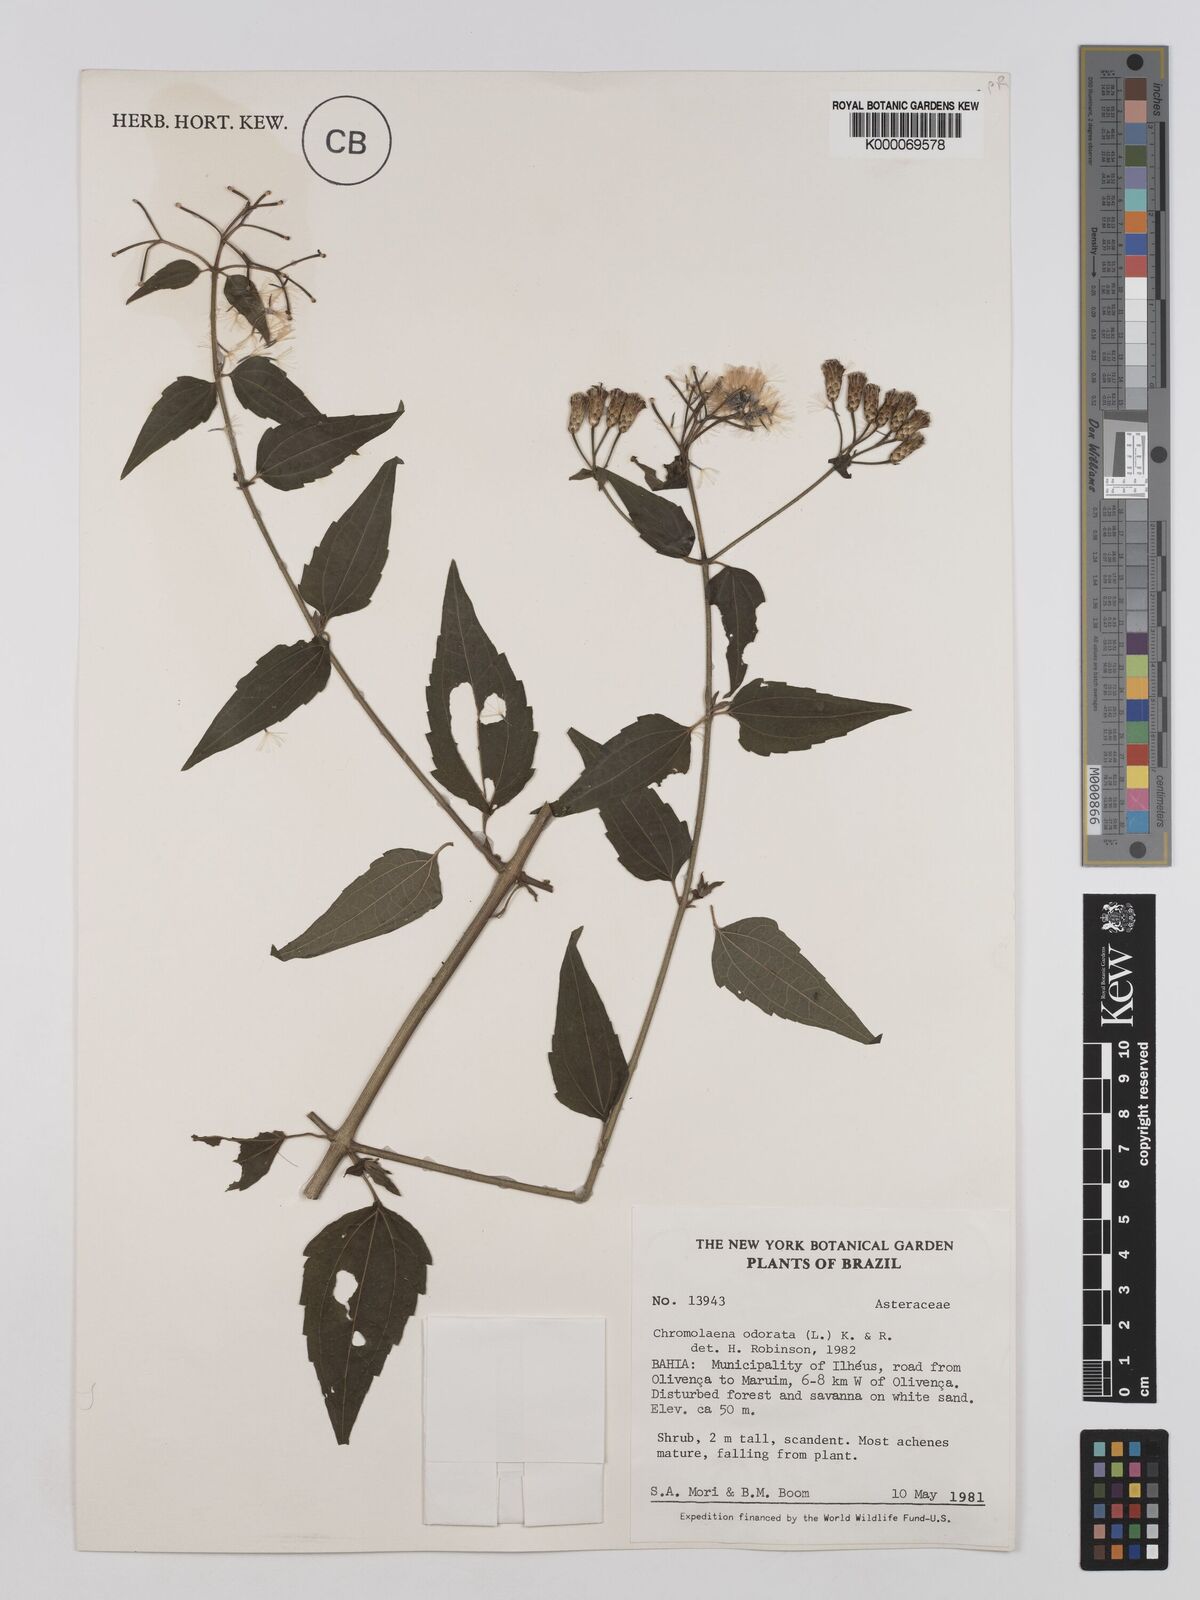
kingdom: Plantae
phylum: Tracheophyta
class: Magnoliopsida
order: Asterales
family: Asteraceae
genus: Chromolaena
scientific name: Chromolaena odorata
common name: Siamweed
